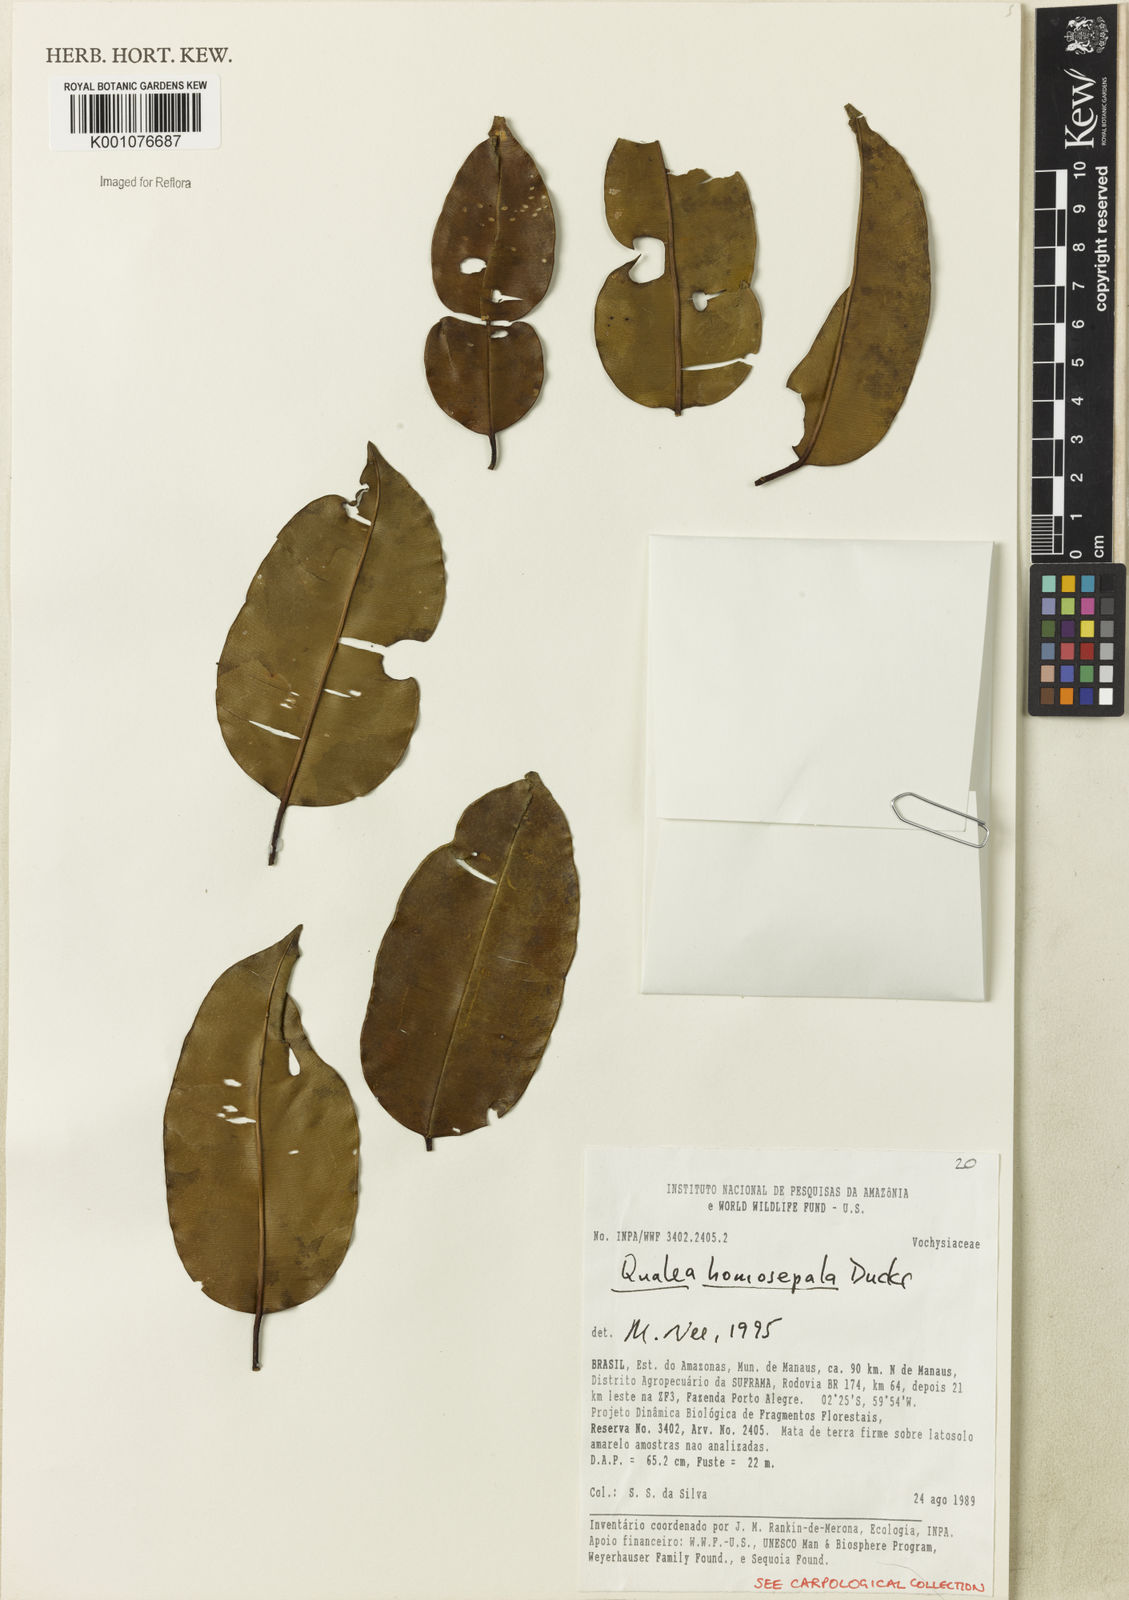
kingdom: Plantae
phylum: Tracheophyta
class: Magnoliopsida
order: Myrtales
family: Vochysiaceae
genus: Qualea
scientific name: Qualea homosepala
